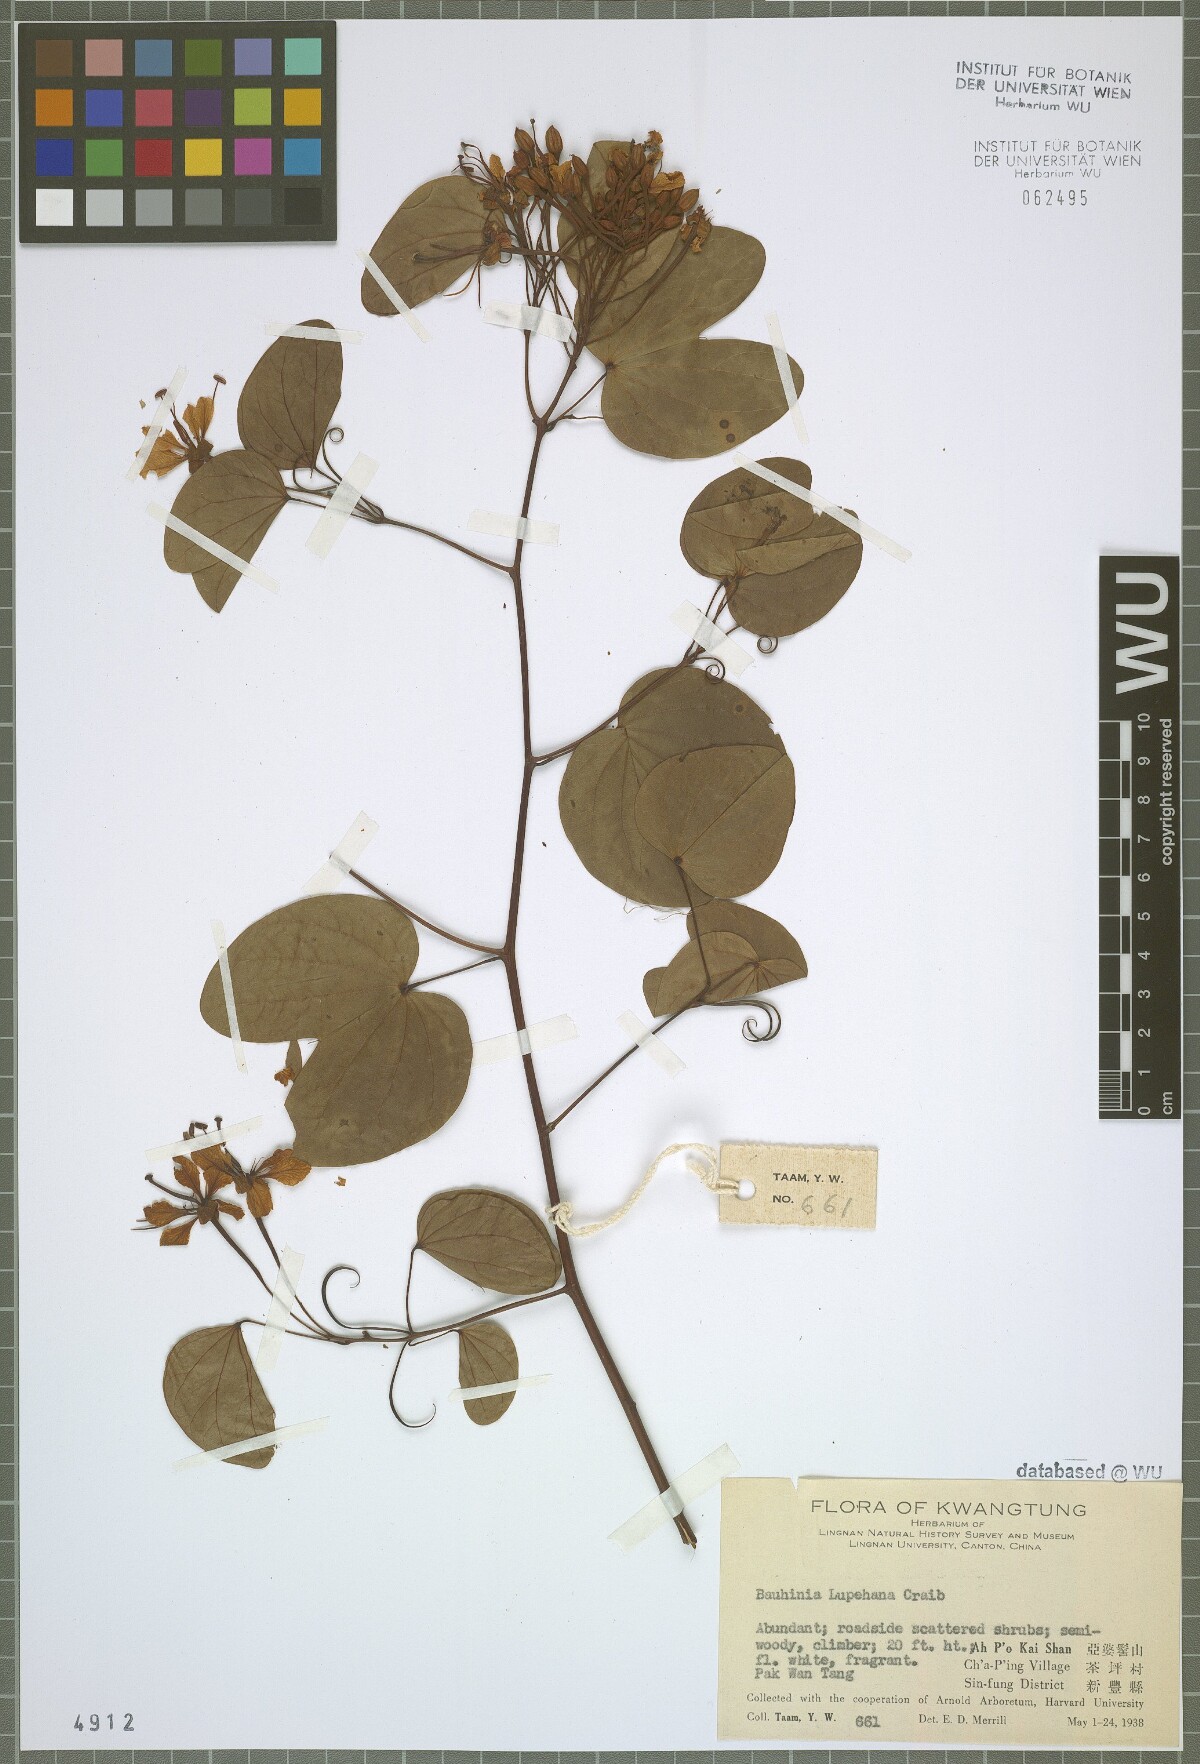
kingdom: Plantae
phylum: Tracheophyta
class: Magnoliopsida
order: Fabales
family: Fabaceae
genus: Cheniella
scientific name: Cheniella tenuiflora
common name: Bauhinia
